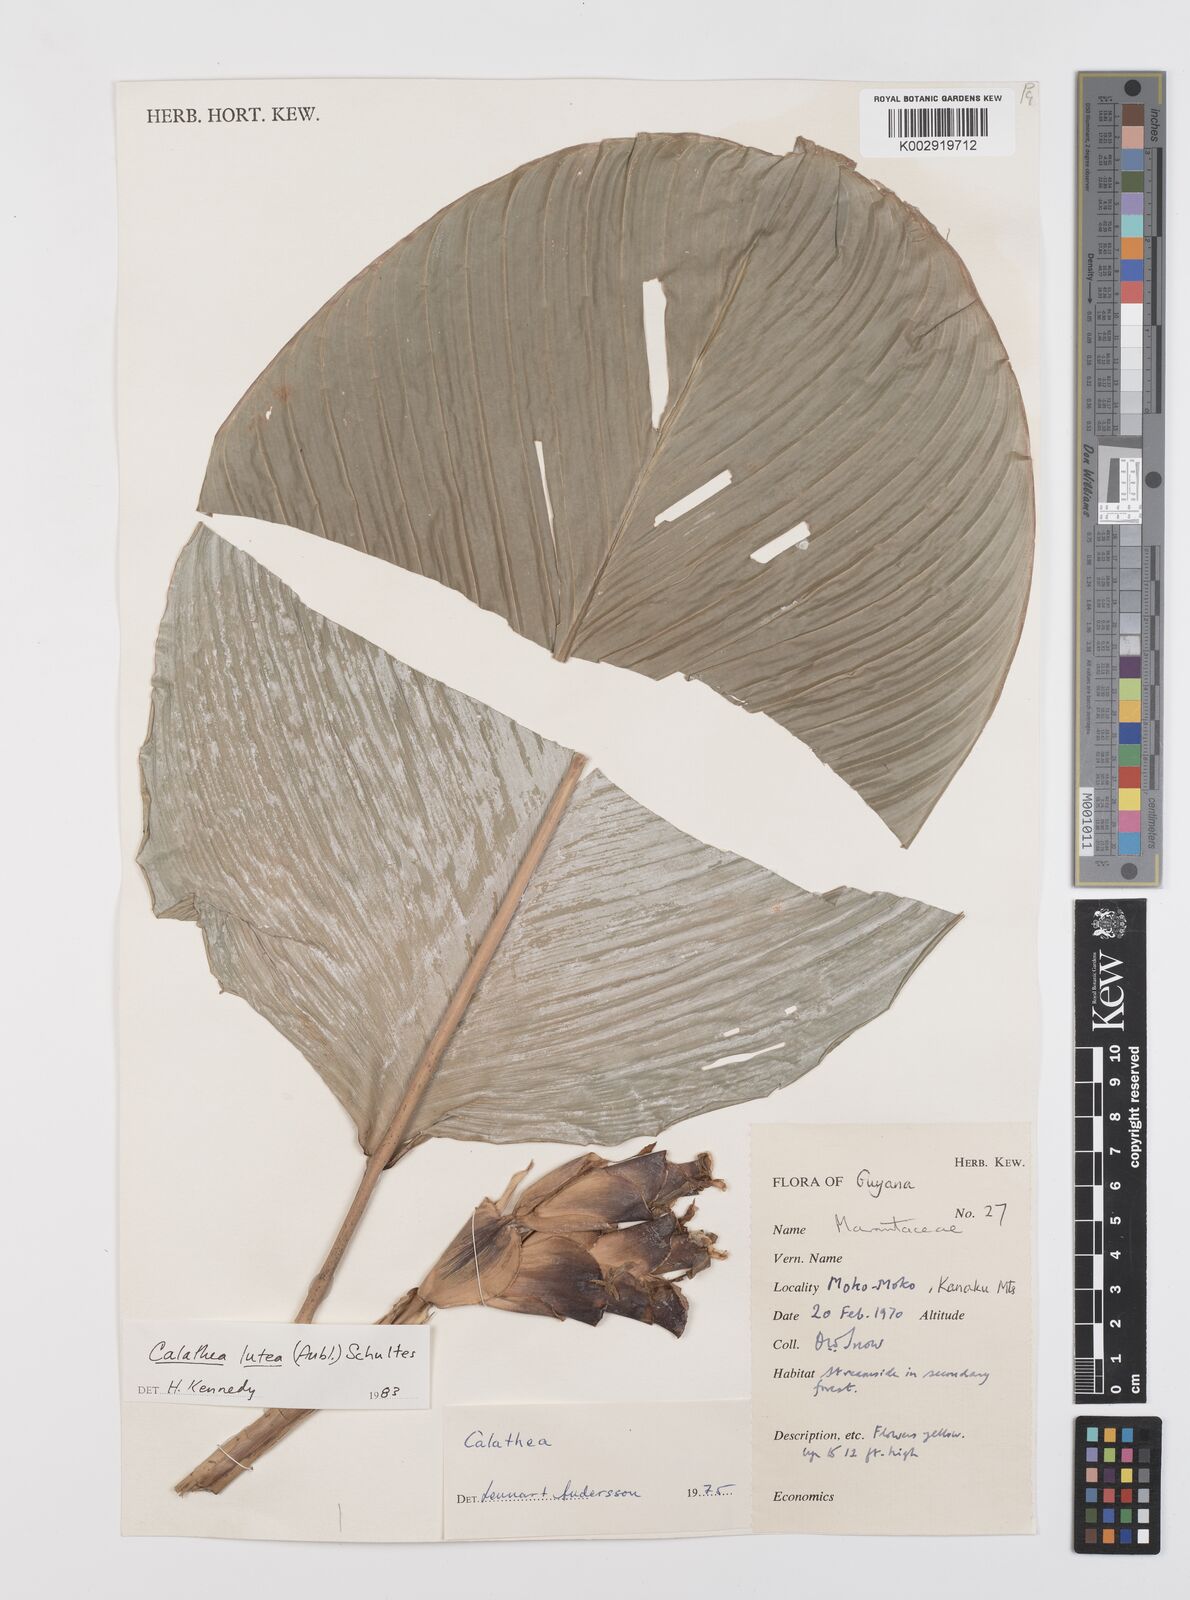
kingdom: Plantae
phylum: Tracheophyta
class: Liliopsida
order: Zingiberales
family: Marantaceae
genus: Calathea
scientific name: Calathea lutea
